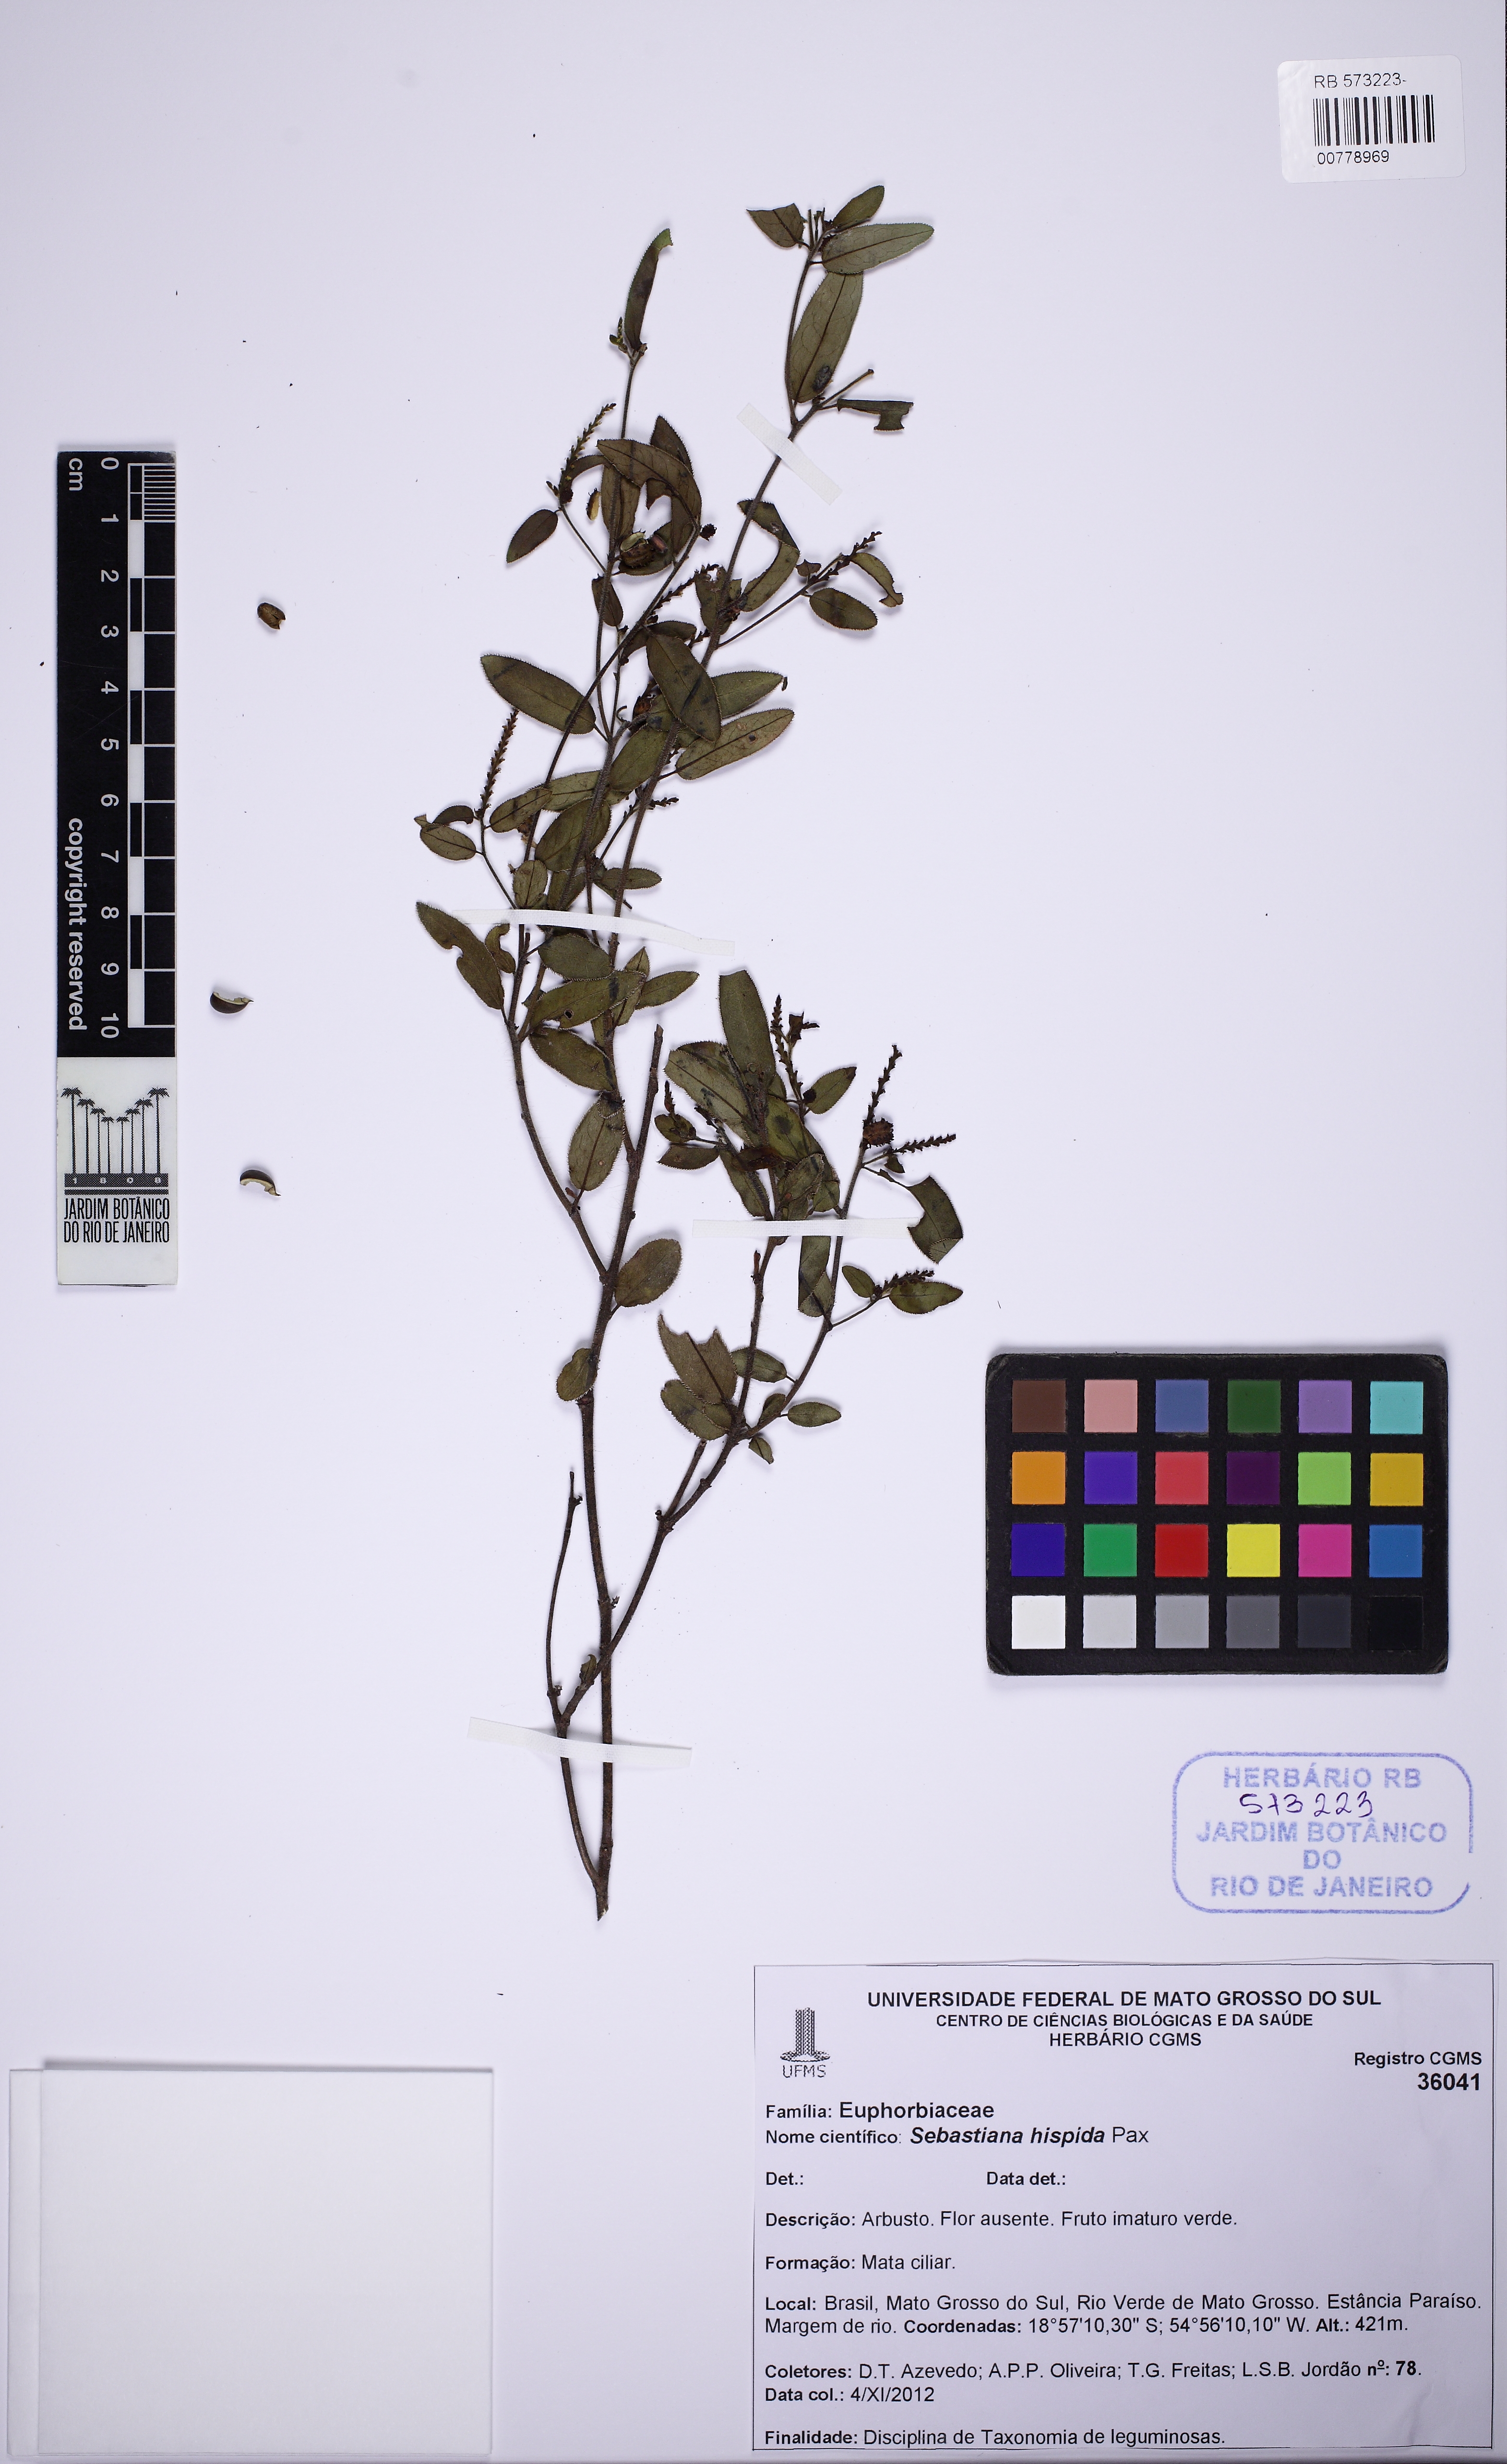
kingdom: Plantae
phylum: Tracheophyta
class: Magnoliopsida
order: Malpighiales
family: Euphorbiaceae
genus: Microstachys
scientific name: Microstachys hispida
